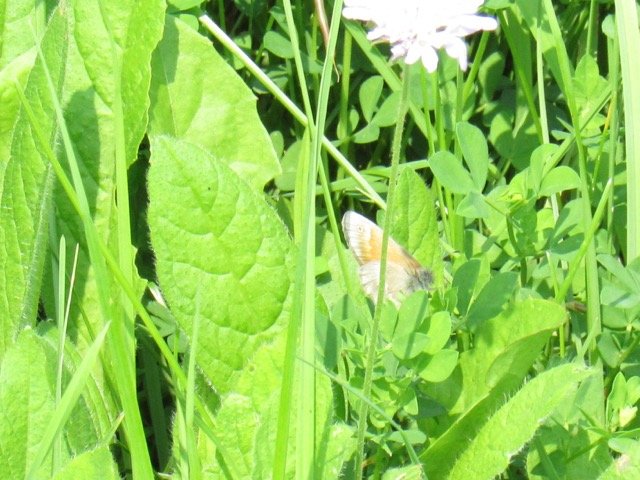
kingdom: Animalia
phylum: Arthropoda
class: Insecta
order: Lepidoptera
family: Nymphalidae
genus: Coenonympha
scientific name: Coenonympha tullia
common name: Large Heath
